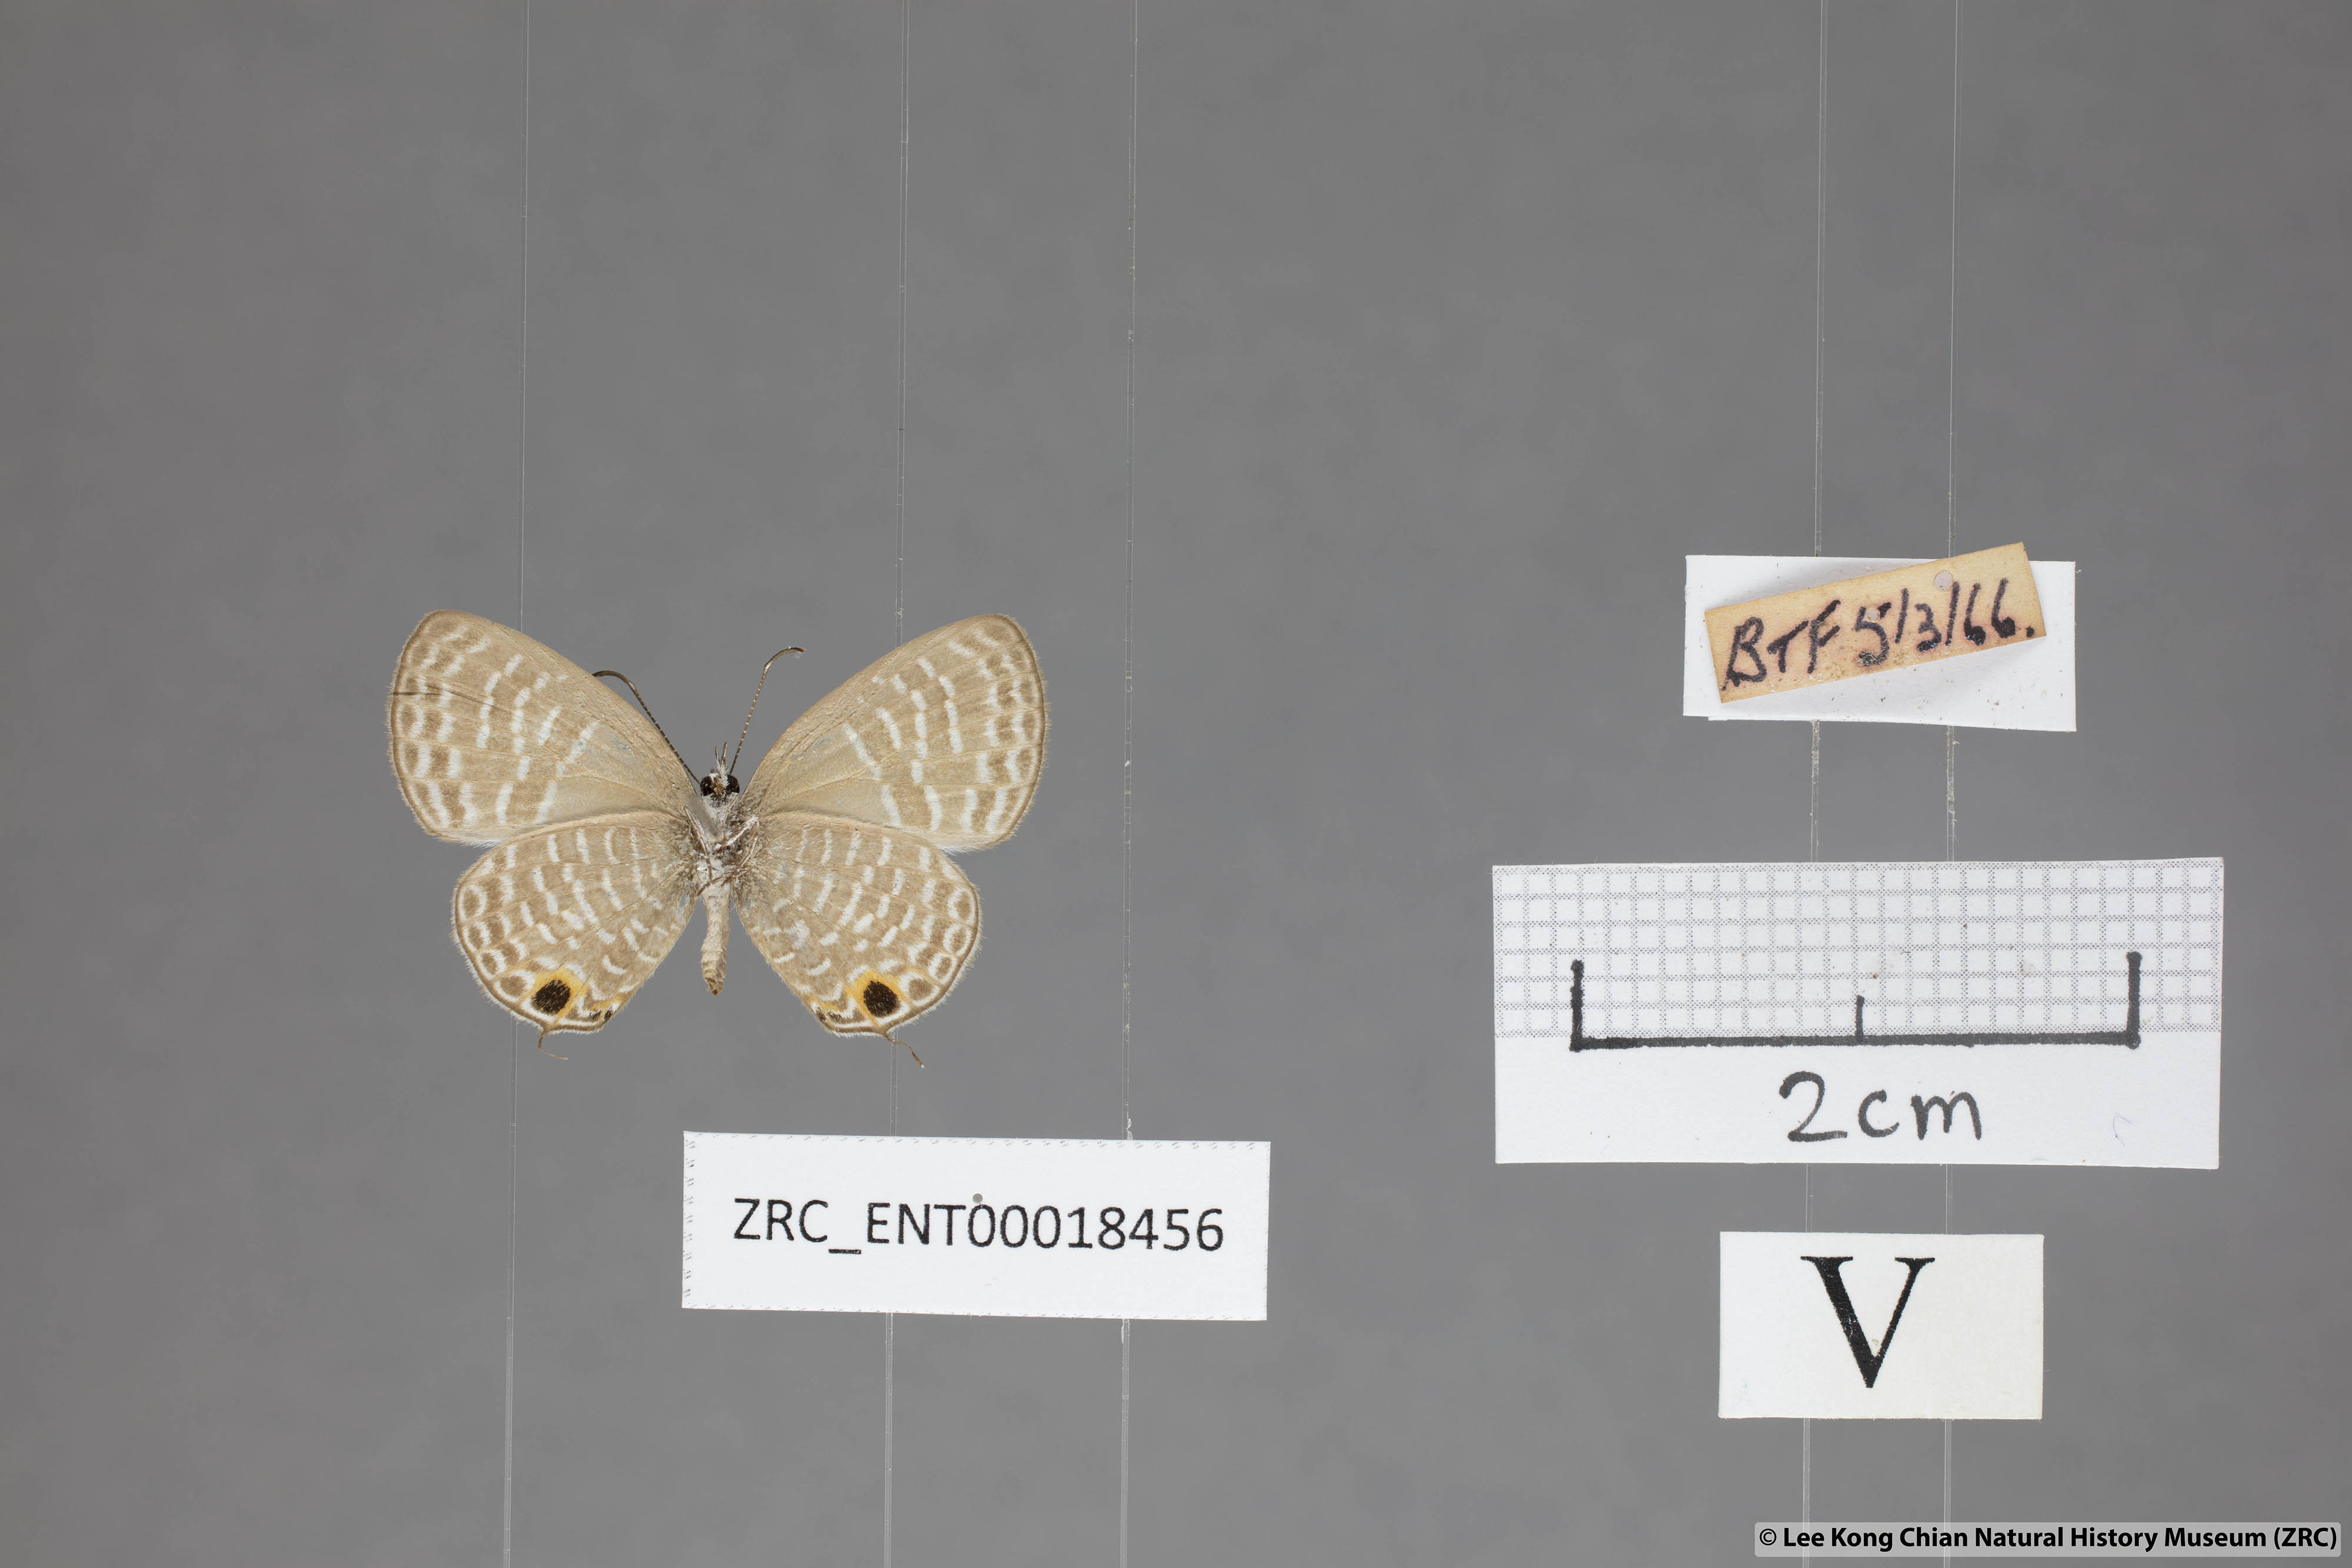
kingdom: Animalia
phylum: Arthropoda
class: Insecta
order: Lepidoptera
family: Lycaenidae
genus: Nacaduba
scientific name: Nacaduba sanaya
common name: Jewel fourline blue
